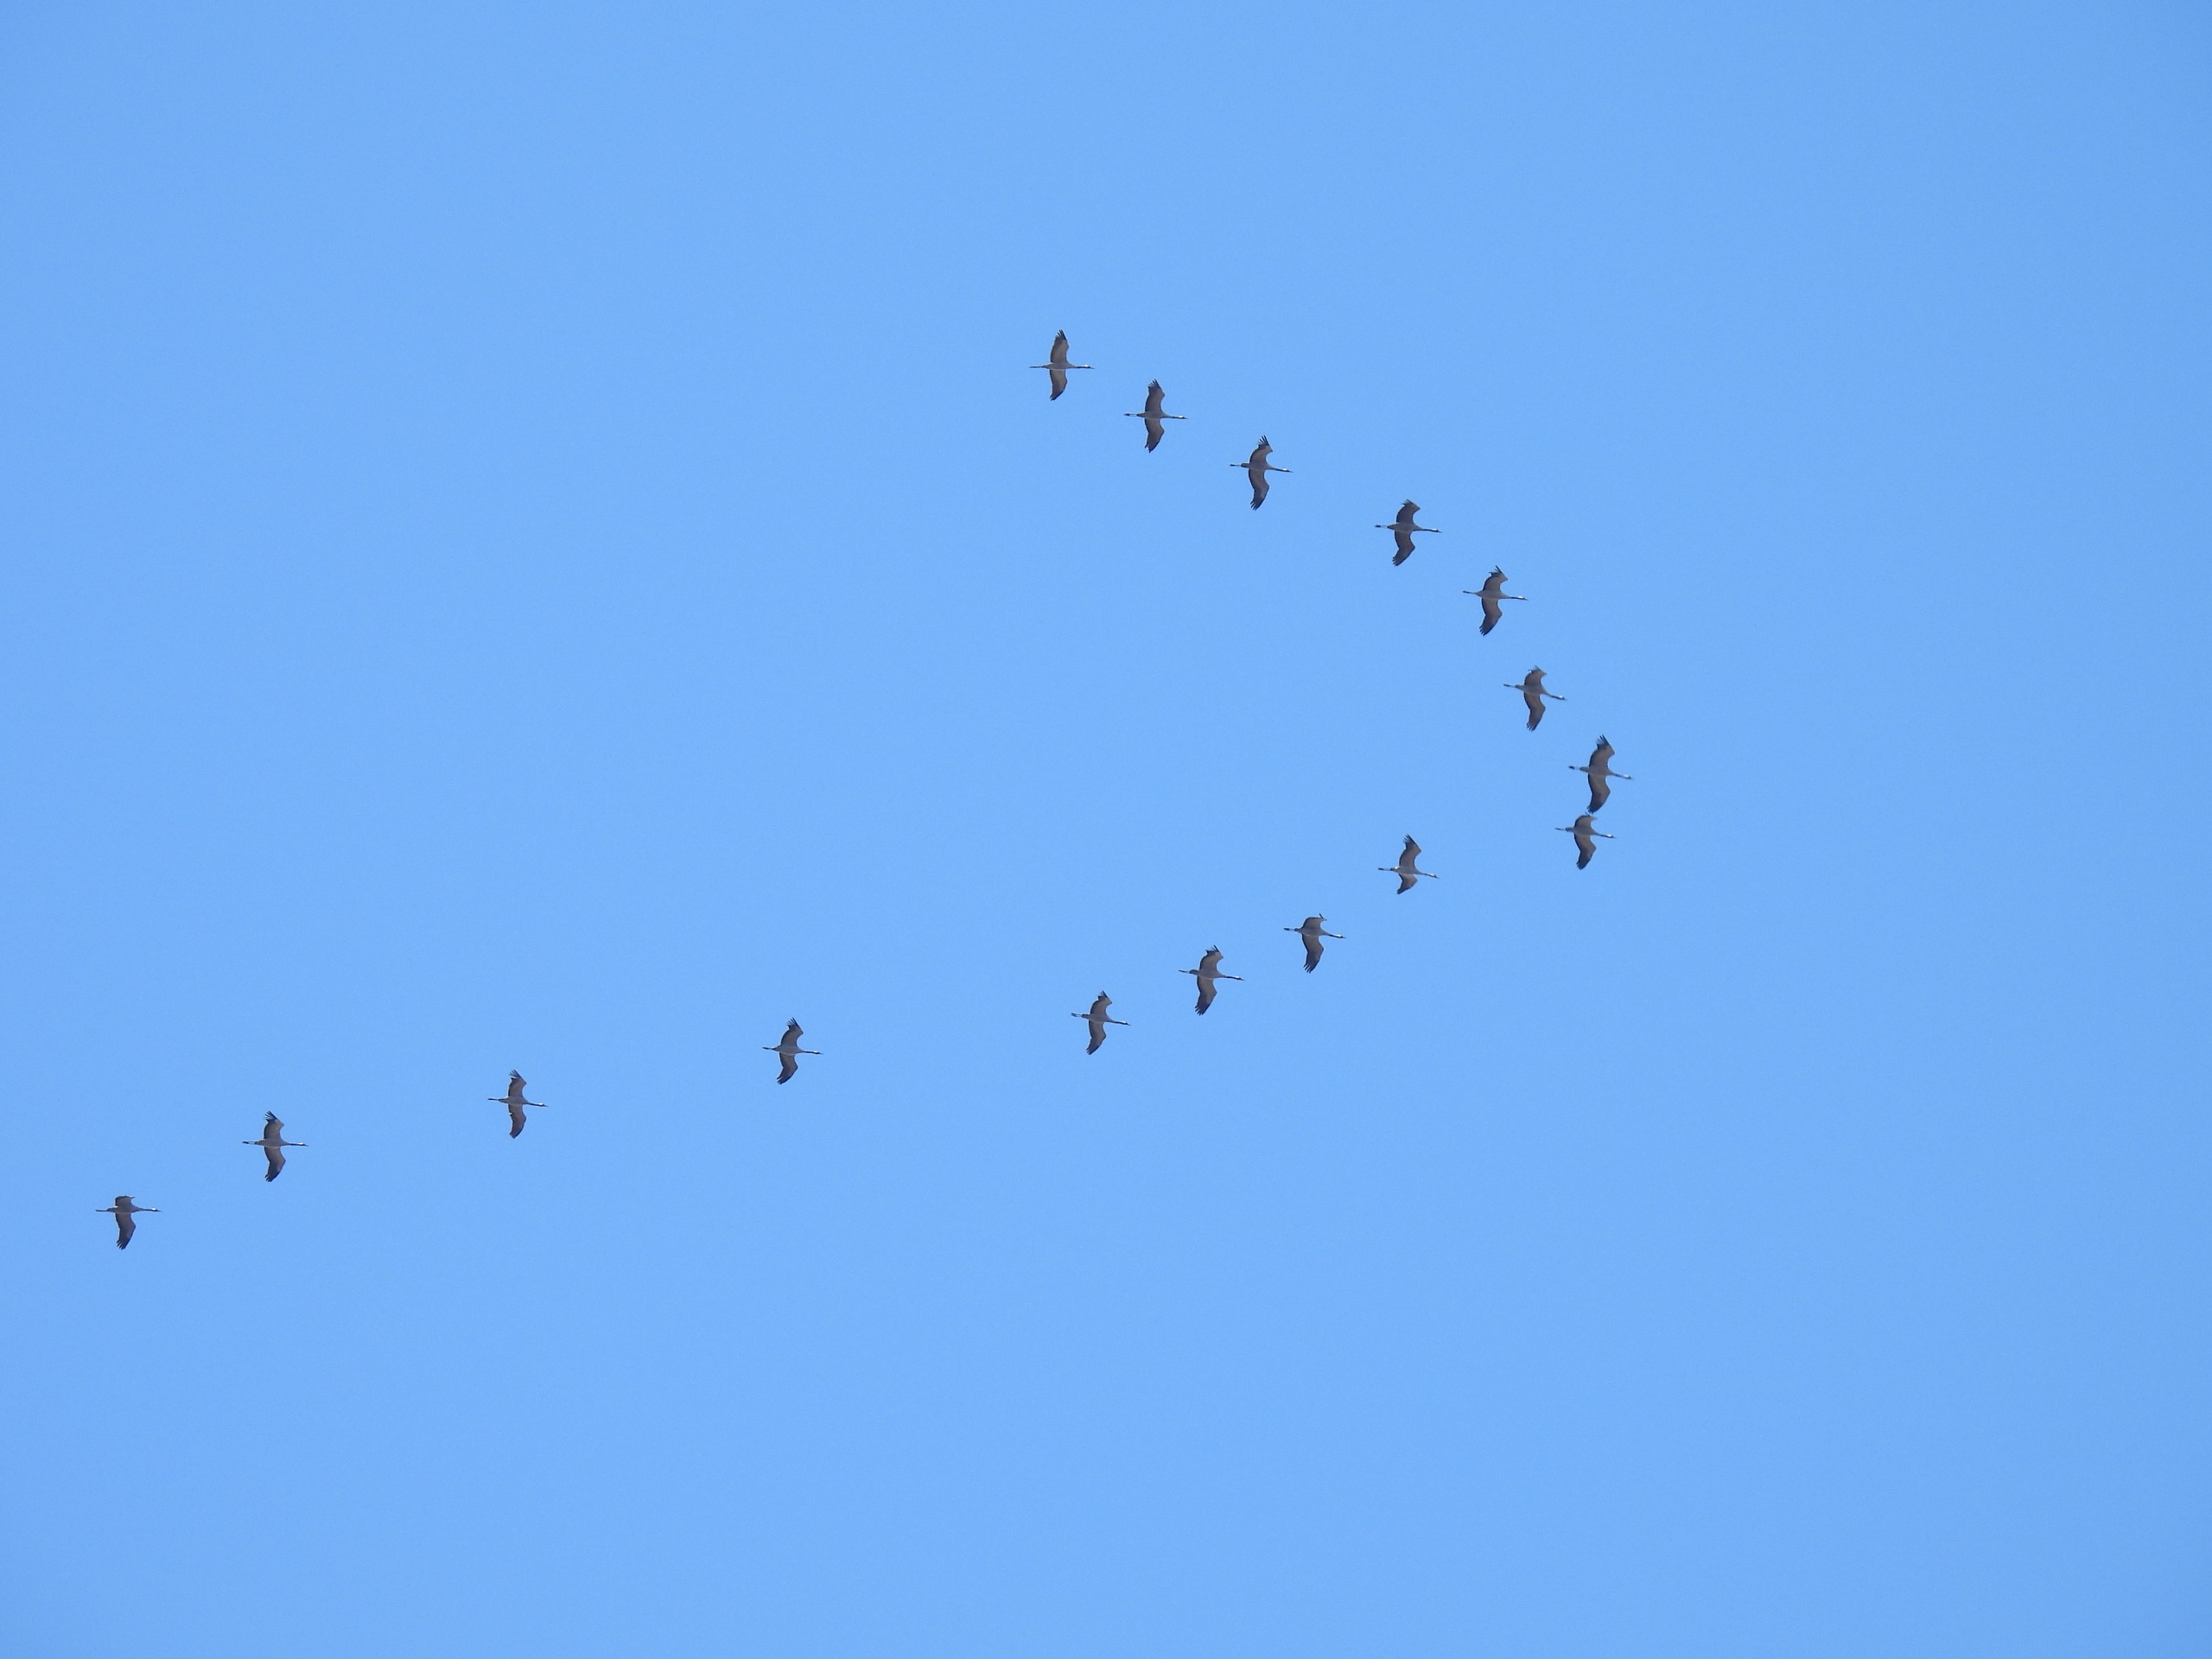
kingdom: Animalia
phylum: Chordata
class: Aves
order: Gruiformes
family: Gruidae
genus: Grus
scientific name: Grus grus
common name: Trane
